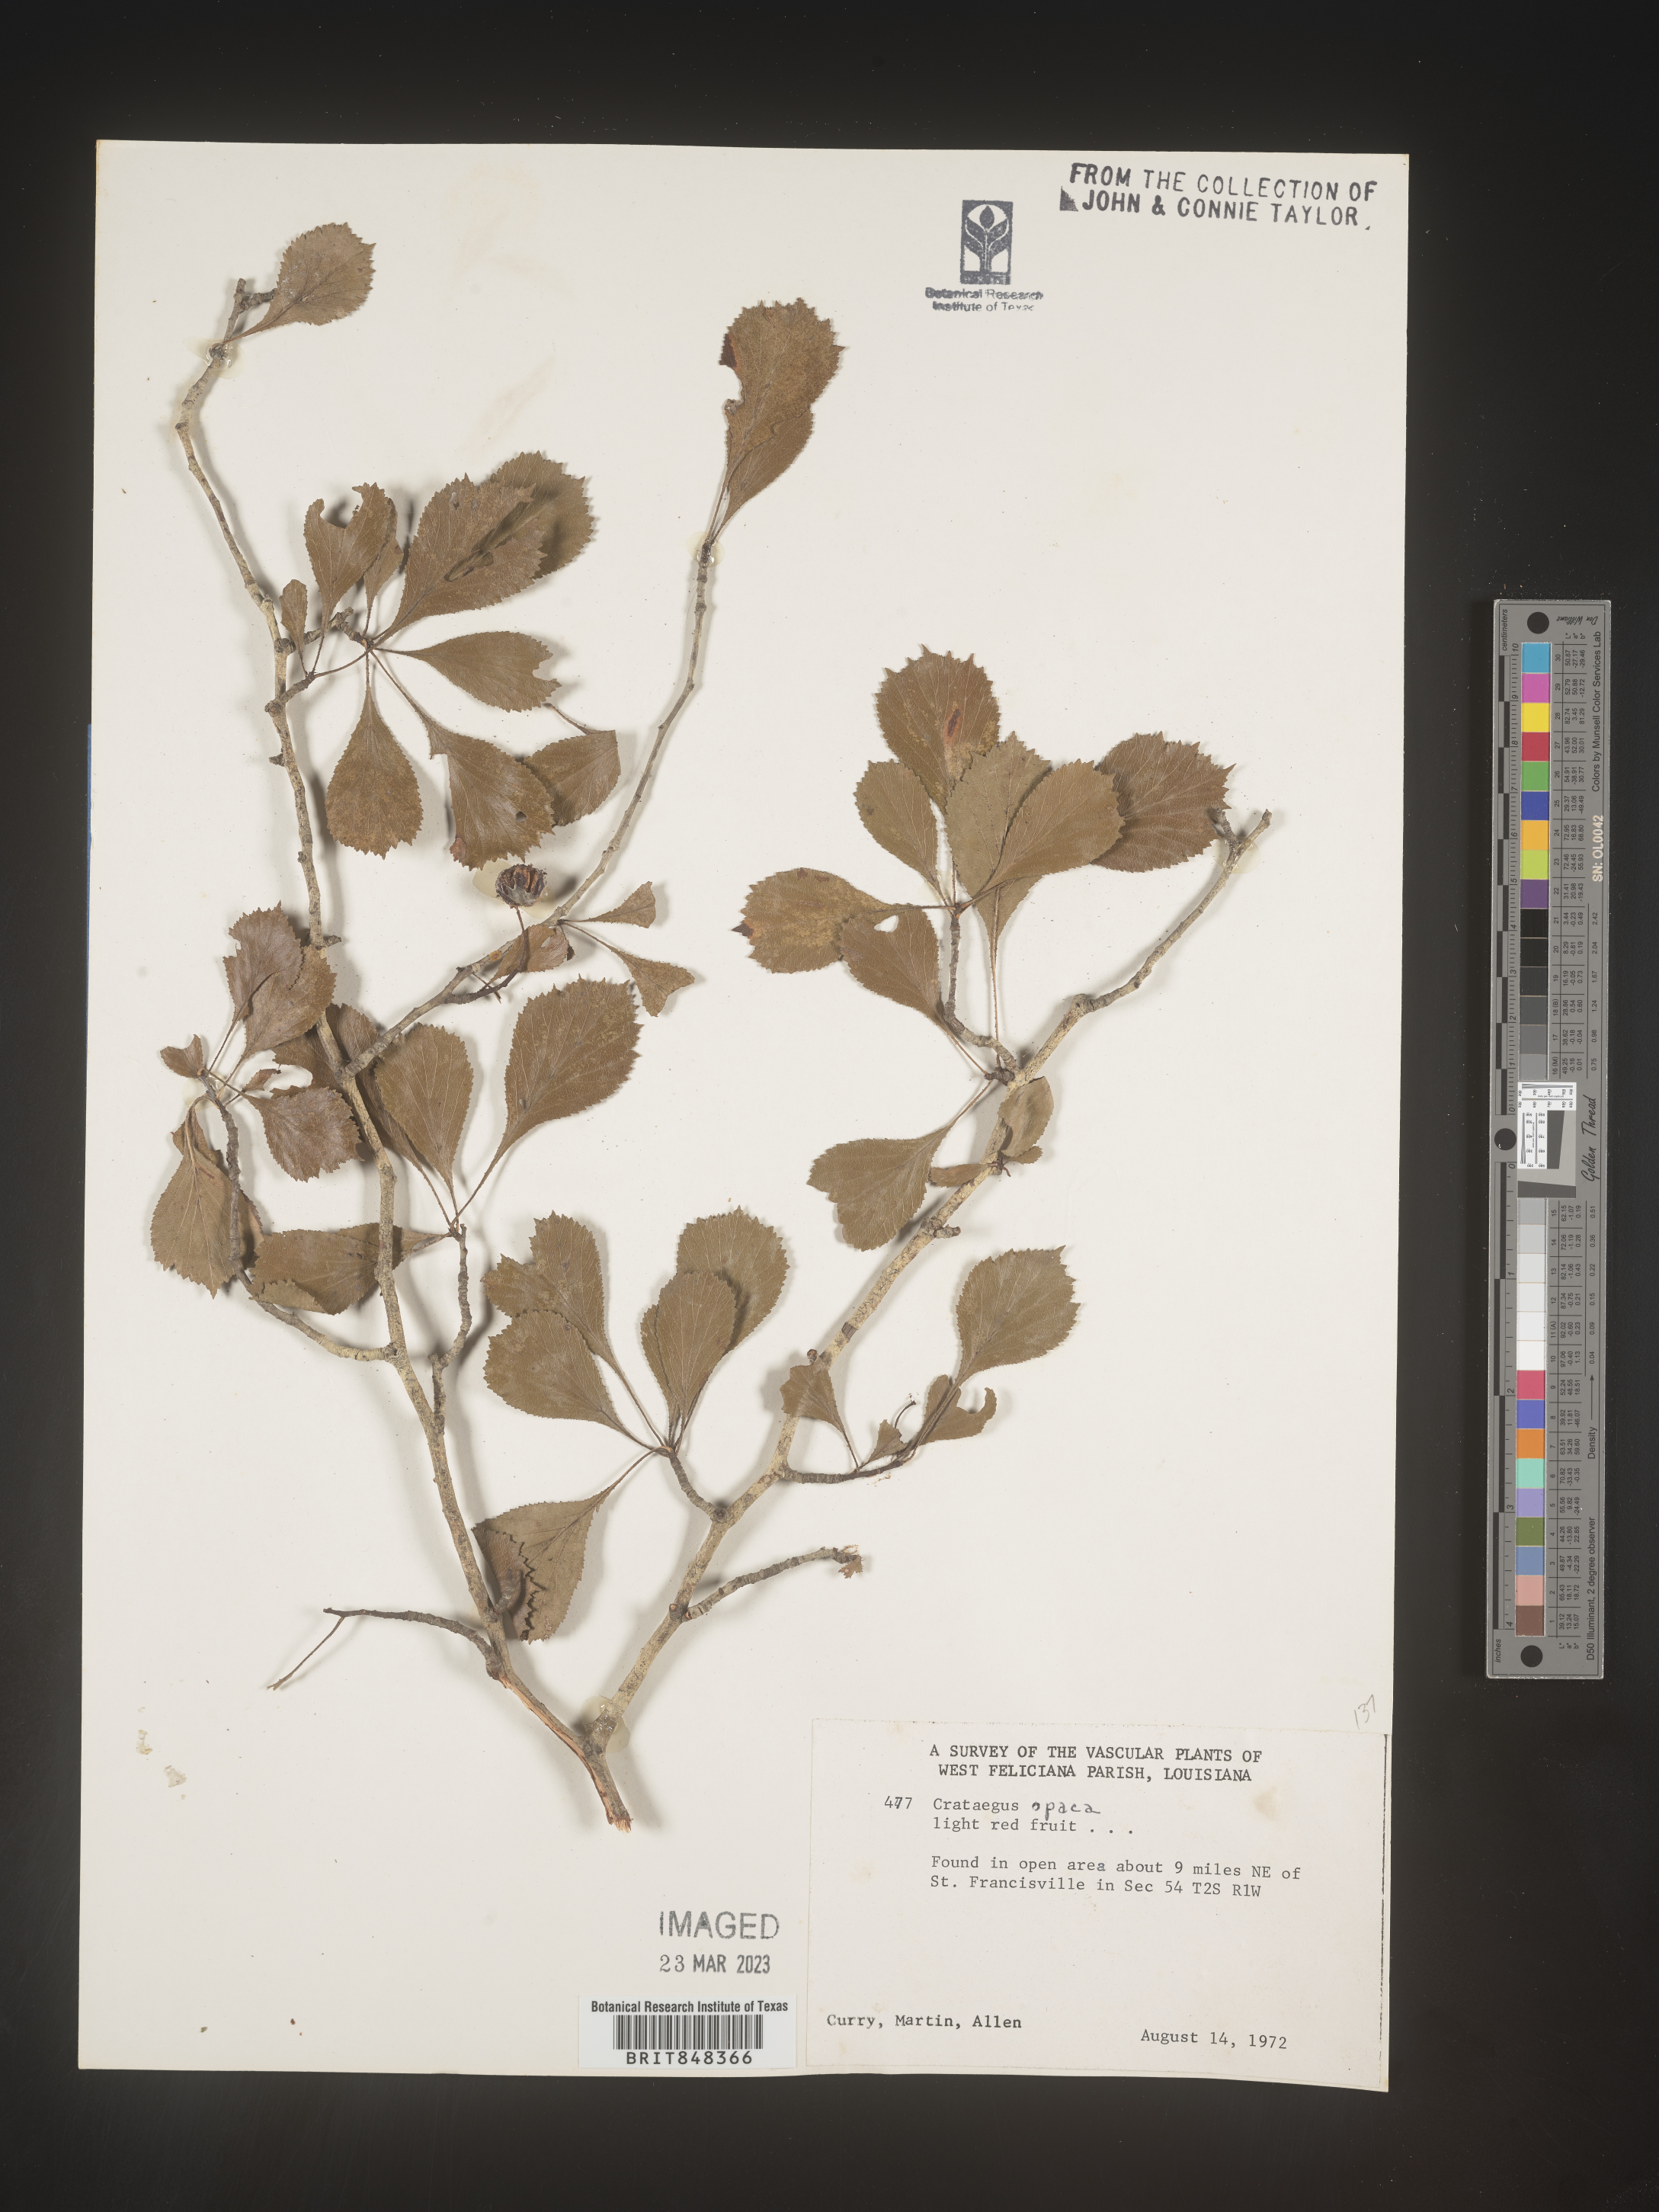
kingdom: Plantae
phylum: Tracheophyta
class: Magnoliopsida
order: Rosales
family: Rosaceae
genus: Crataegus
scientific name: Crataegus opaca
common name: Apple haw
